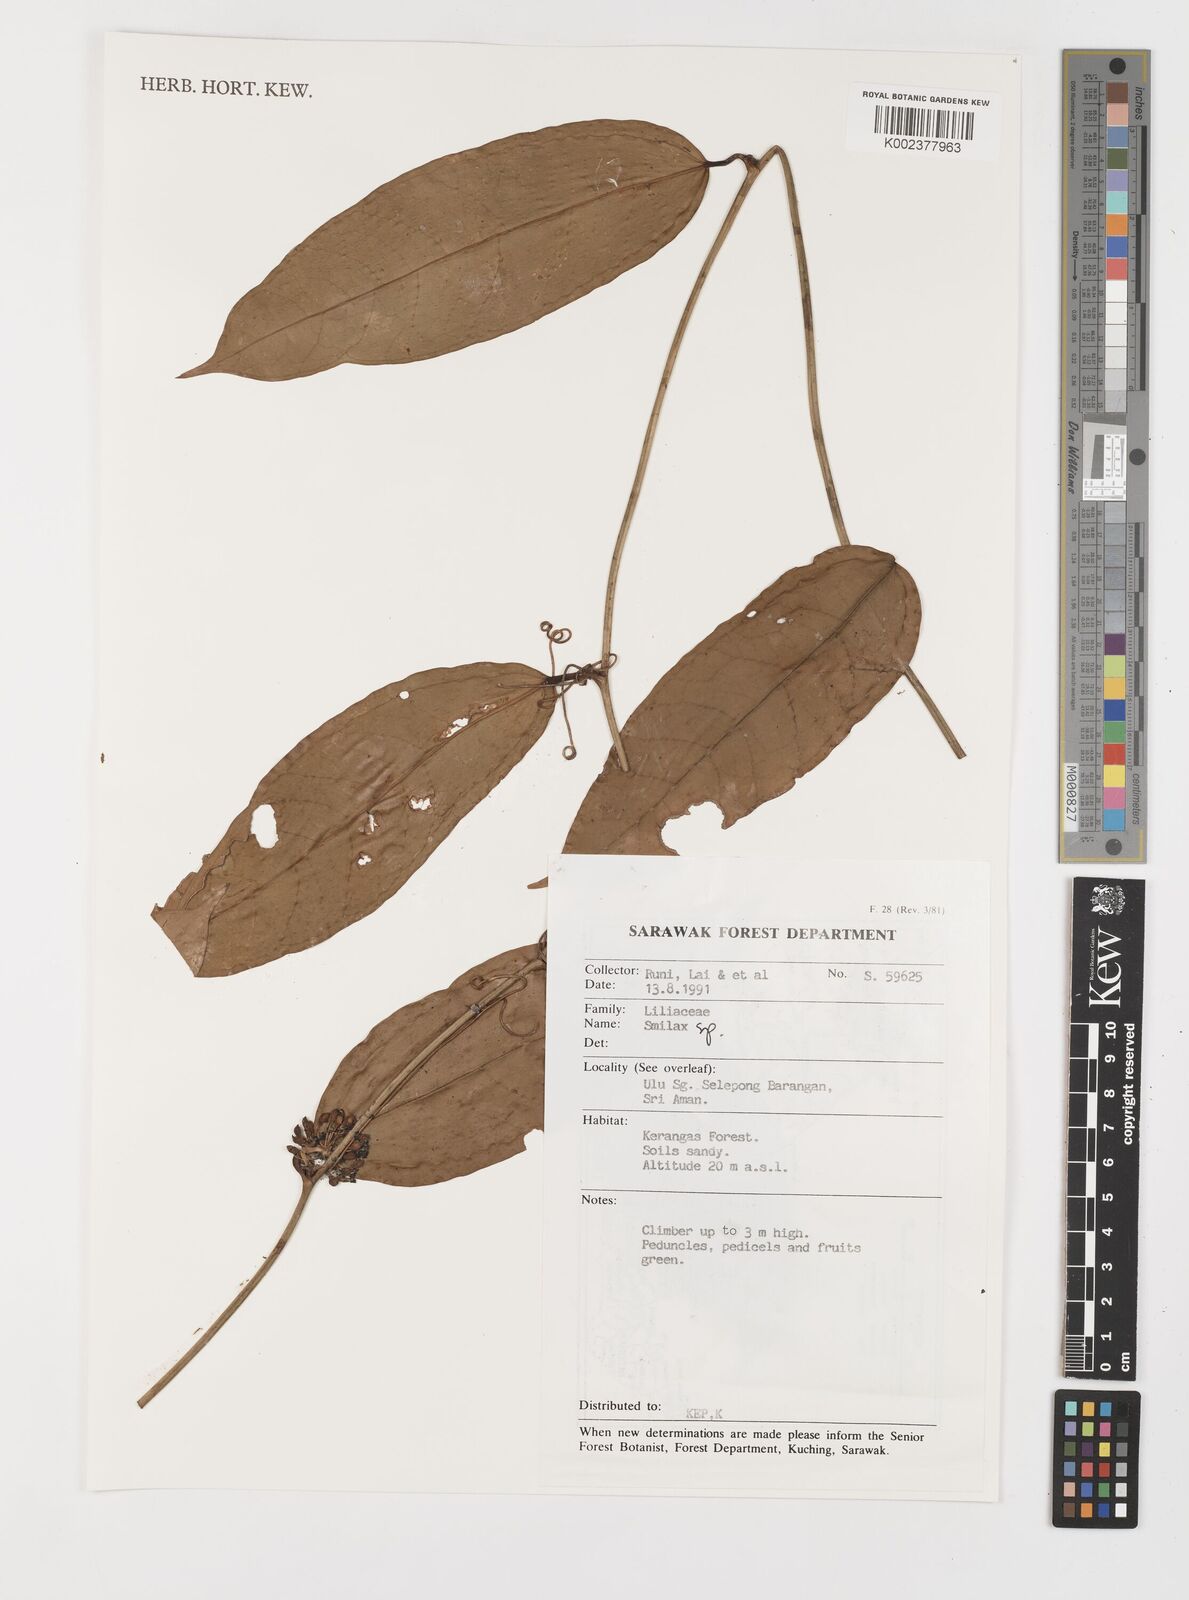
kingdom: Plantae
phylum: Tracheophyta
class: Liliopsida
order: Liliales
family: Smilacaceae
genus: Smilax
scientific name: Smilax
